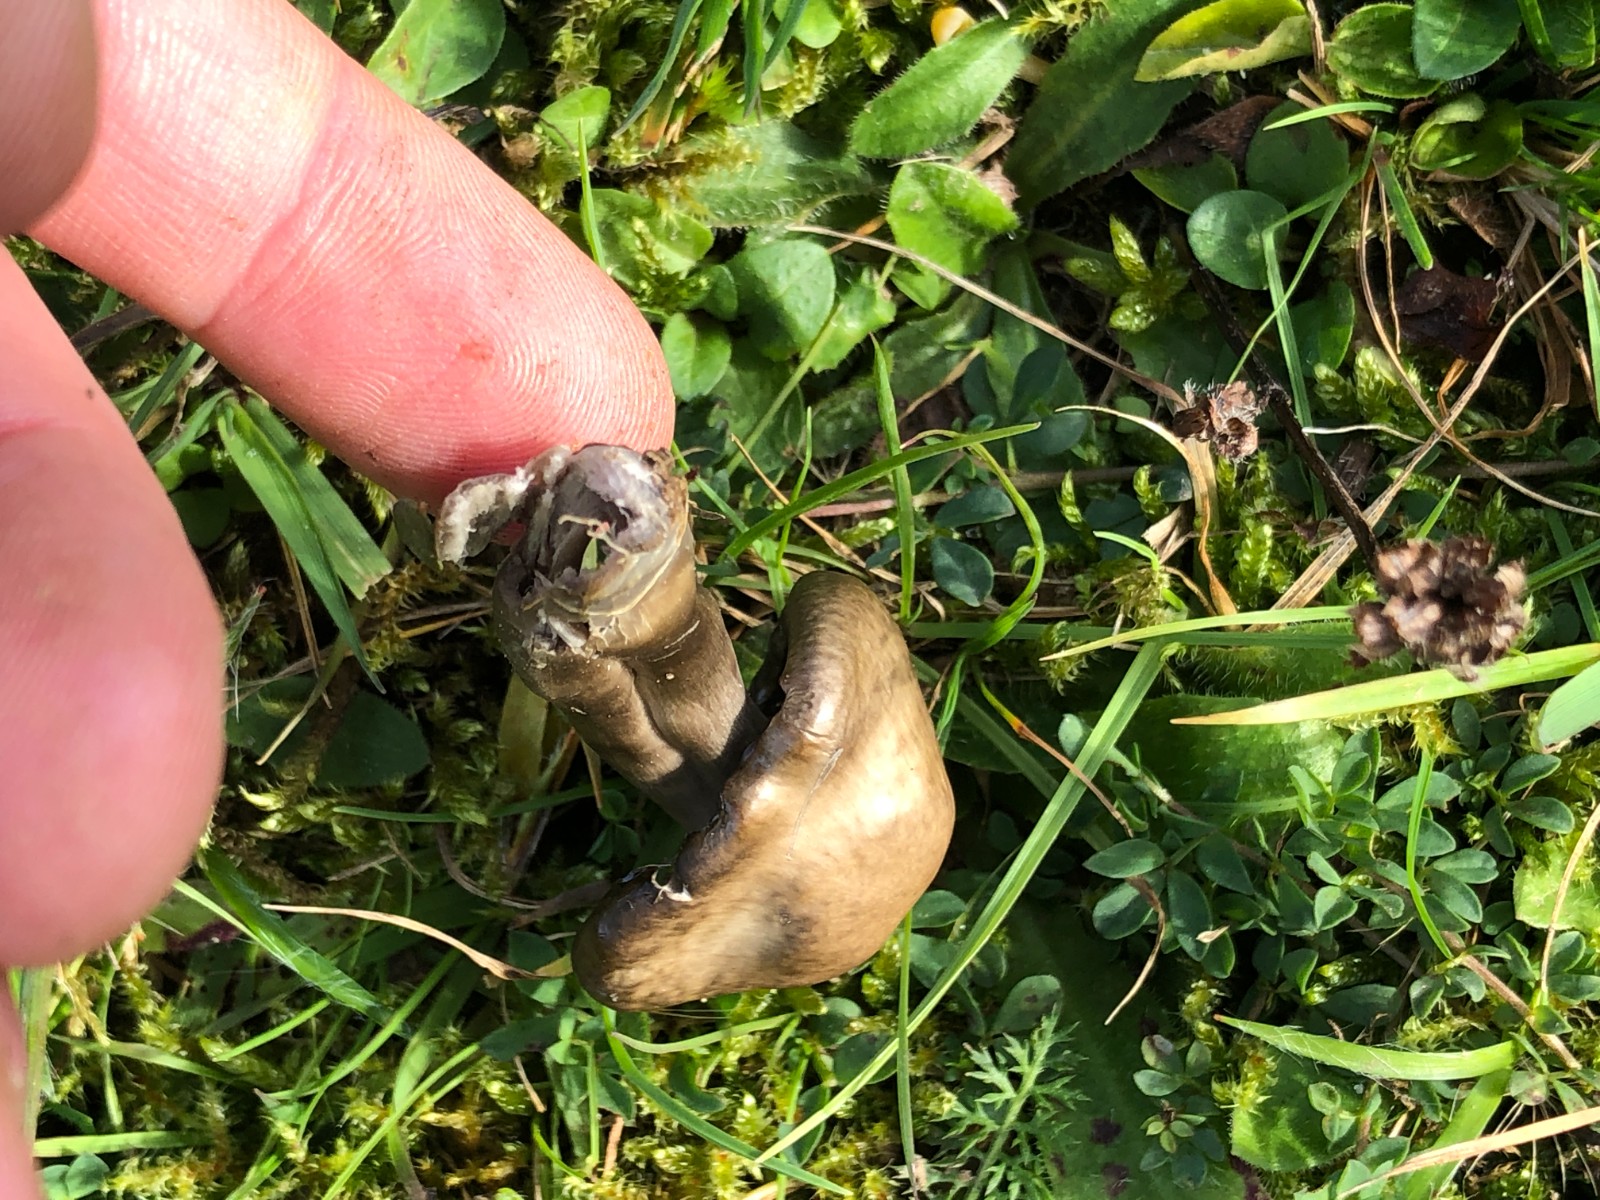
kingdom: Fungi
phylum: Basidiomycota
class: Agaricomycetes
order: Agaricales
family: Hygrophoraceae
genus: Gliophorus
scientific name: Gliophorus irrigatus
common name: slimet vokshat
